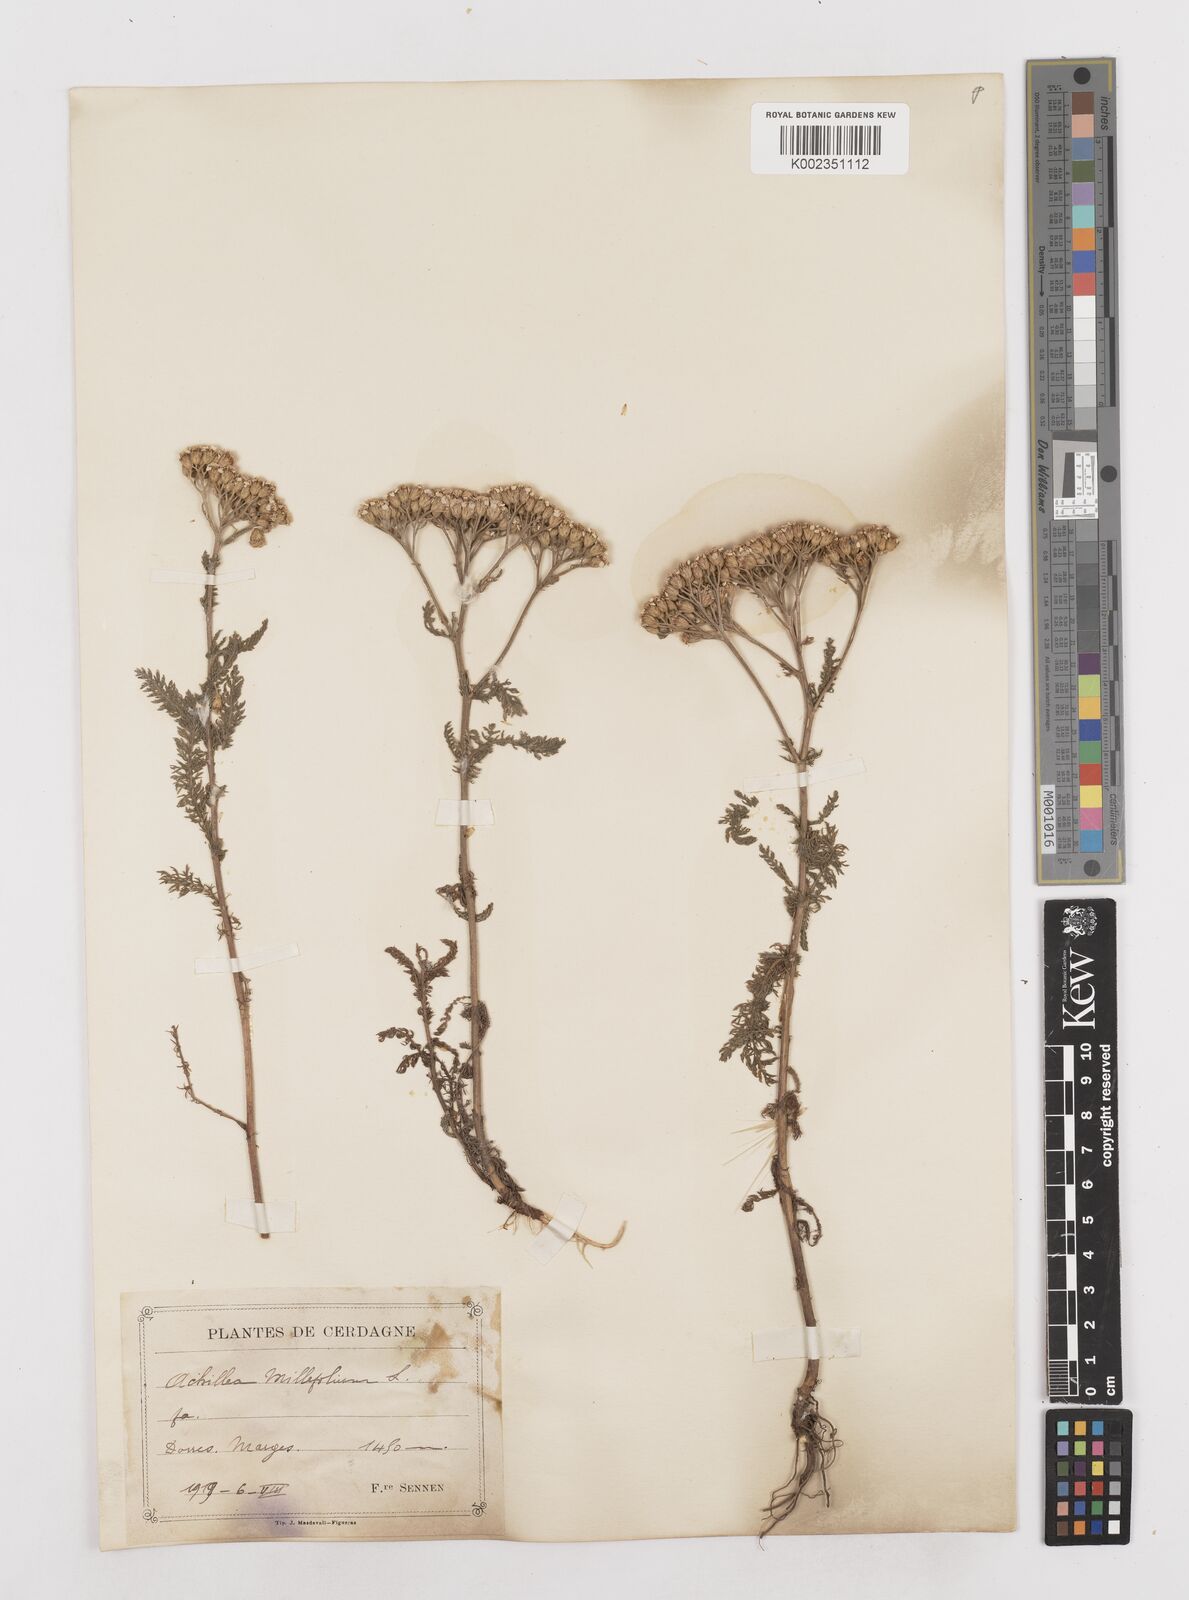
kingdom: Plantae
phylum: Tracheophyta
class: Magnoliopsida
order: Asterales
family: Asteraceae
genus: Achillea
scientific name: Achillea millefolium
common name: Yarrow
